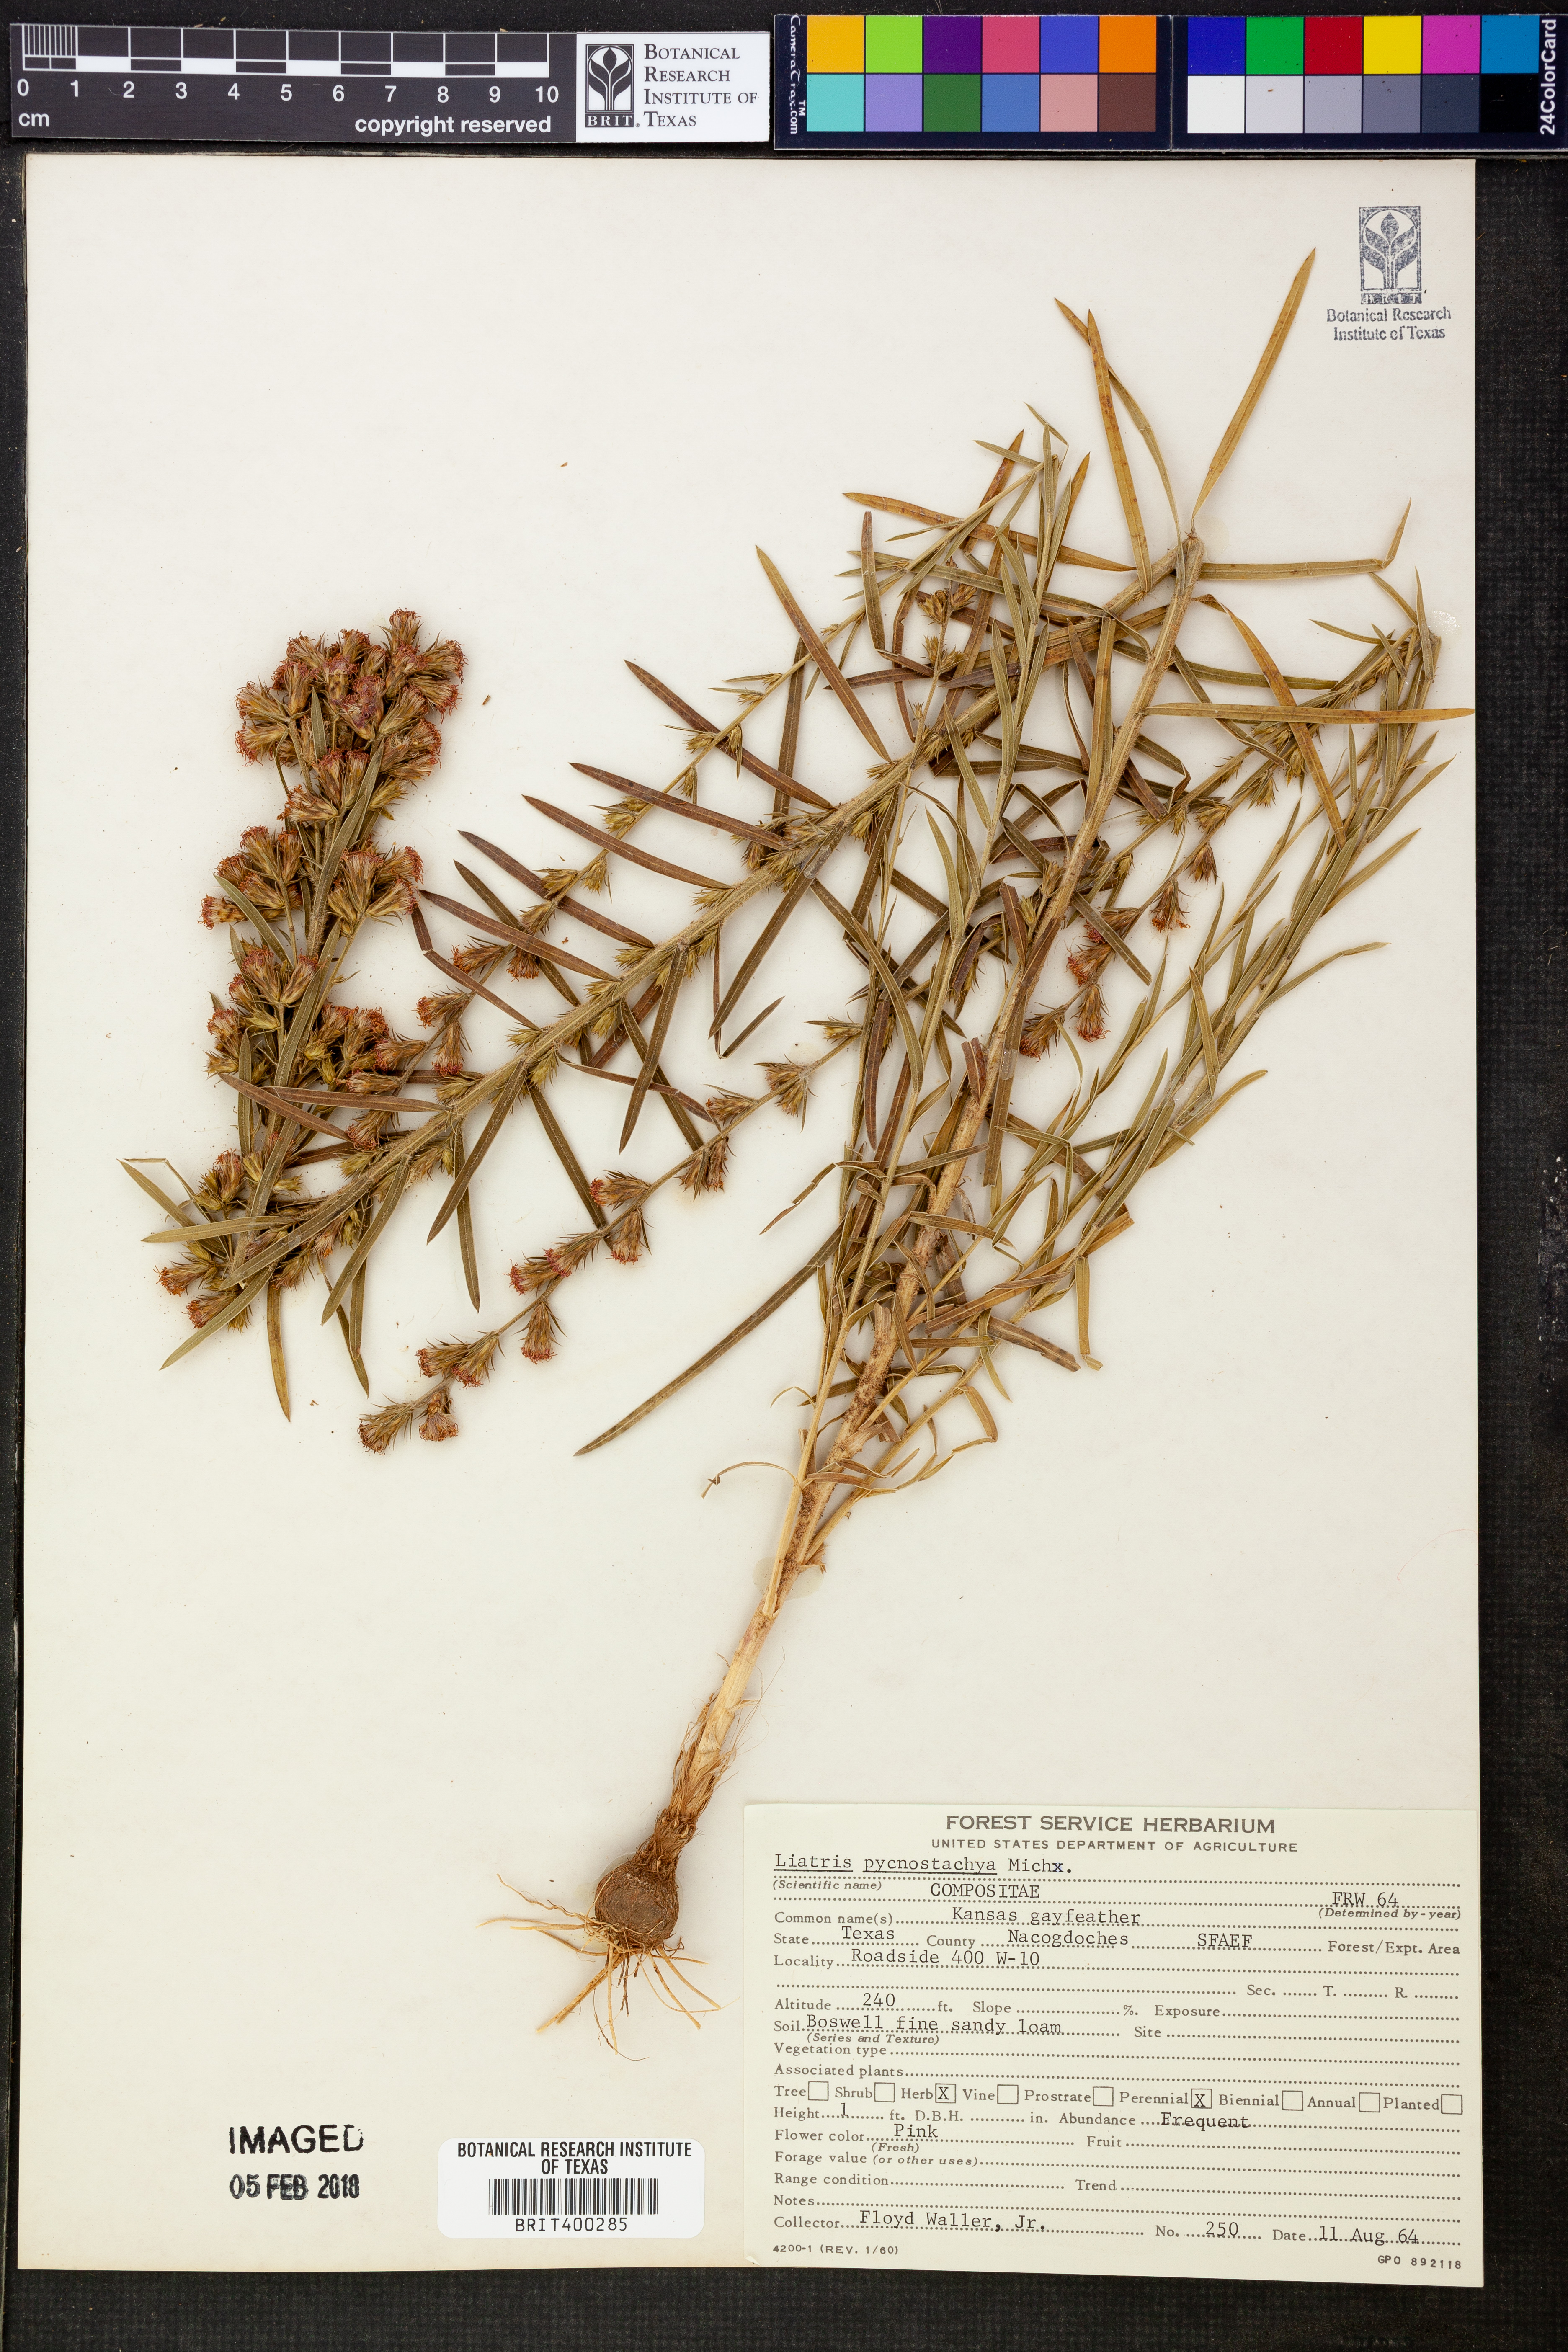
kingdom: Plantae
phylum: Tracheophyta
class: Magnoliopsida
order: Asterales
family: Asteraceae
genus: Liatris
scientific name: Liatris pycnostachya
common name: Cattail gayfeather
